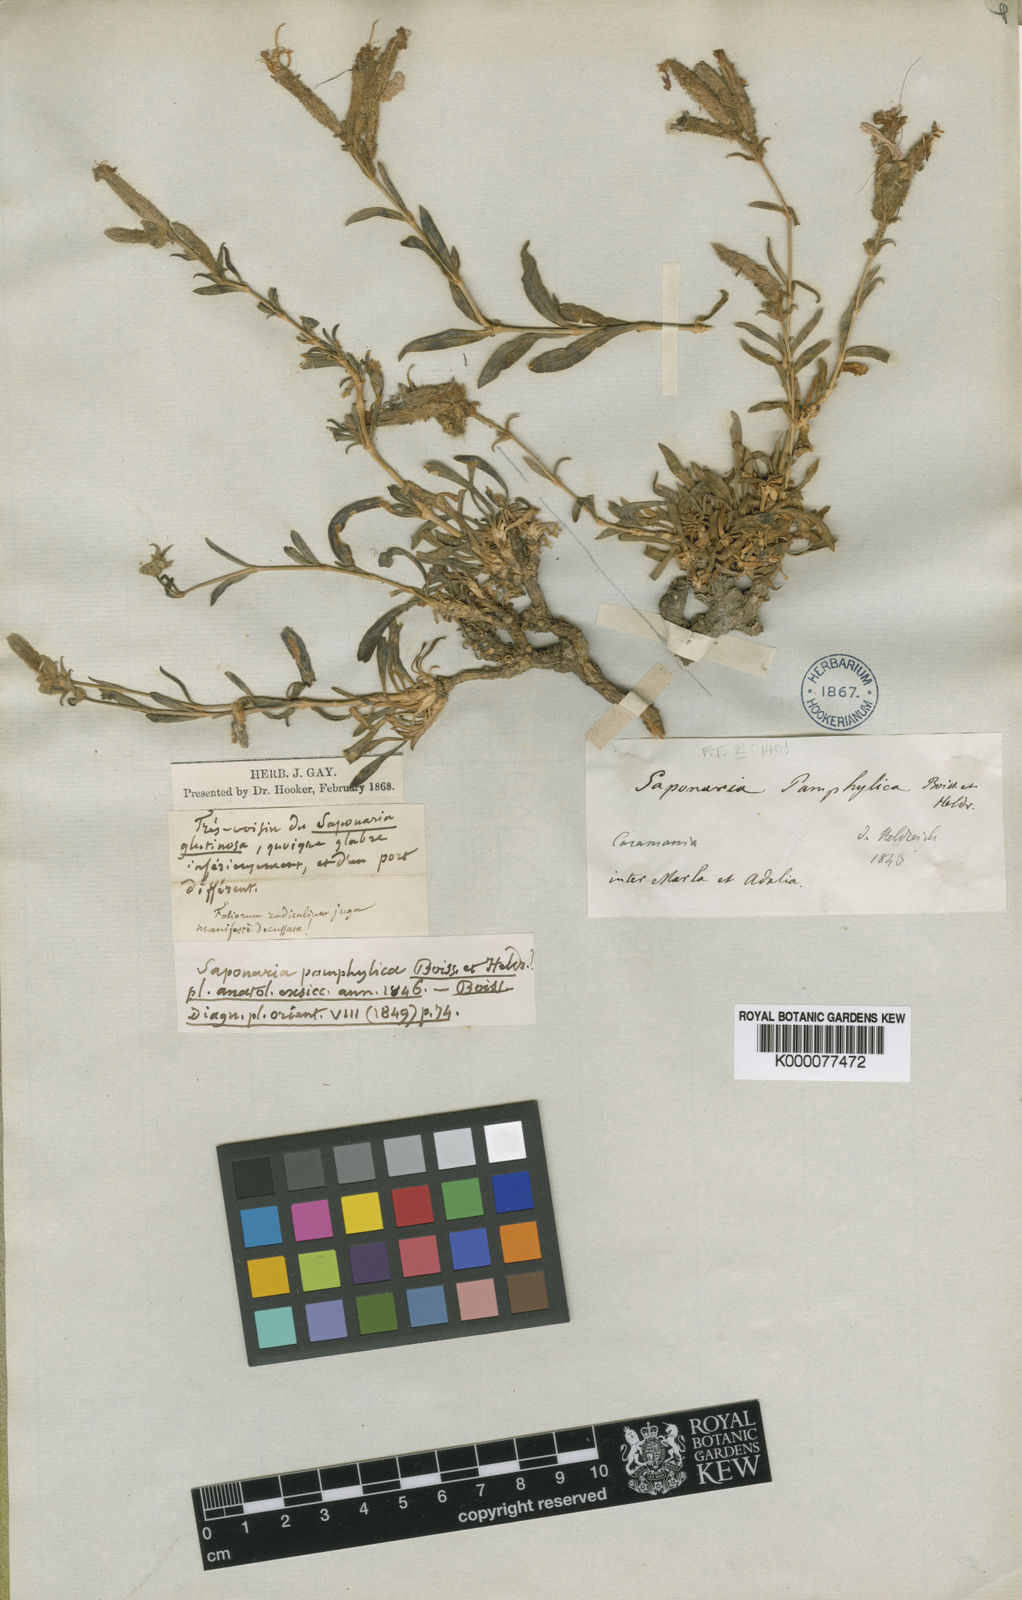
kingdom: Plantae
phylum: Tracheophyta
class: Magnoliopsida
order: Caryophyllales
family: Caryophyllaceae
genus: Saponaria
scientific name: Saponaria pamphylica
